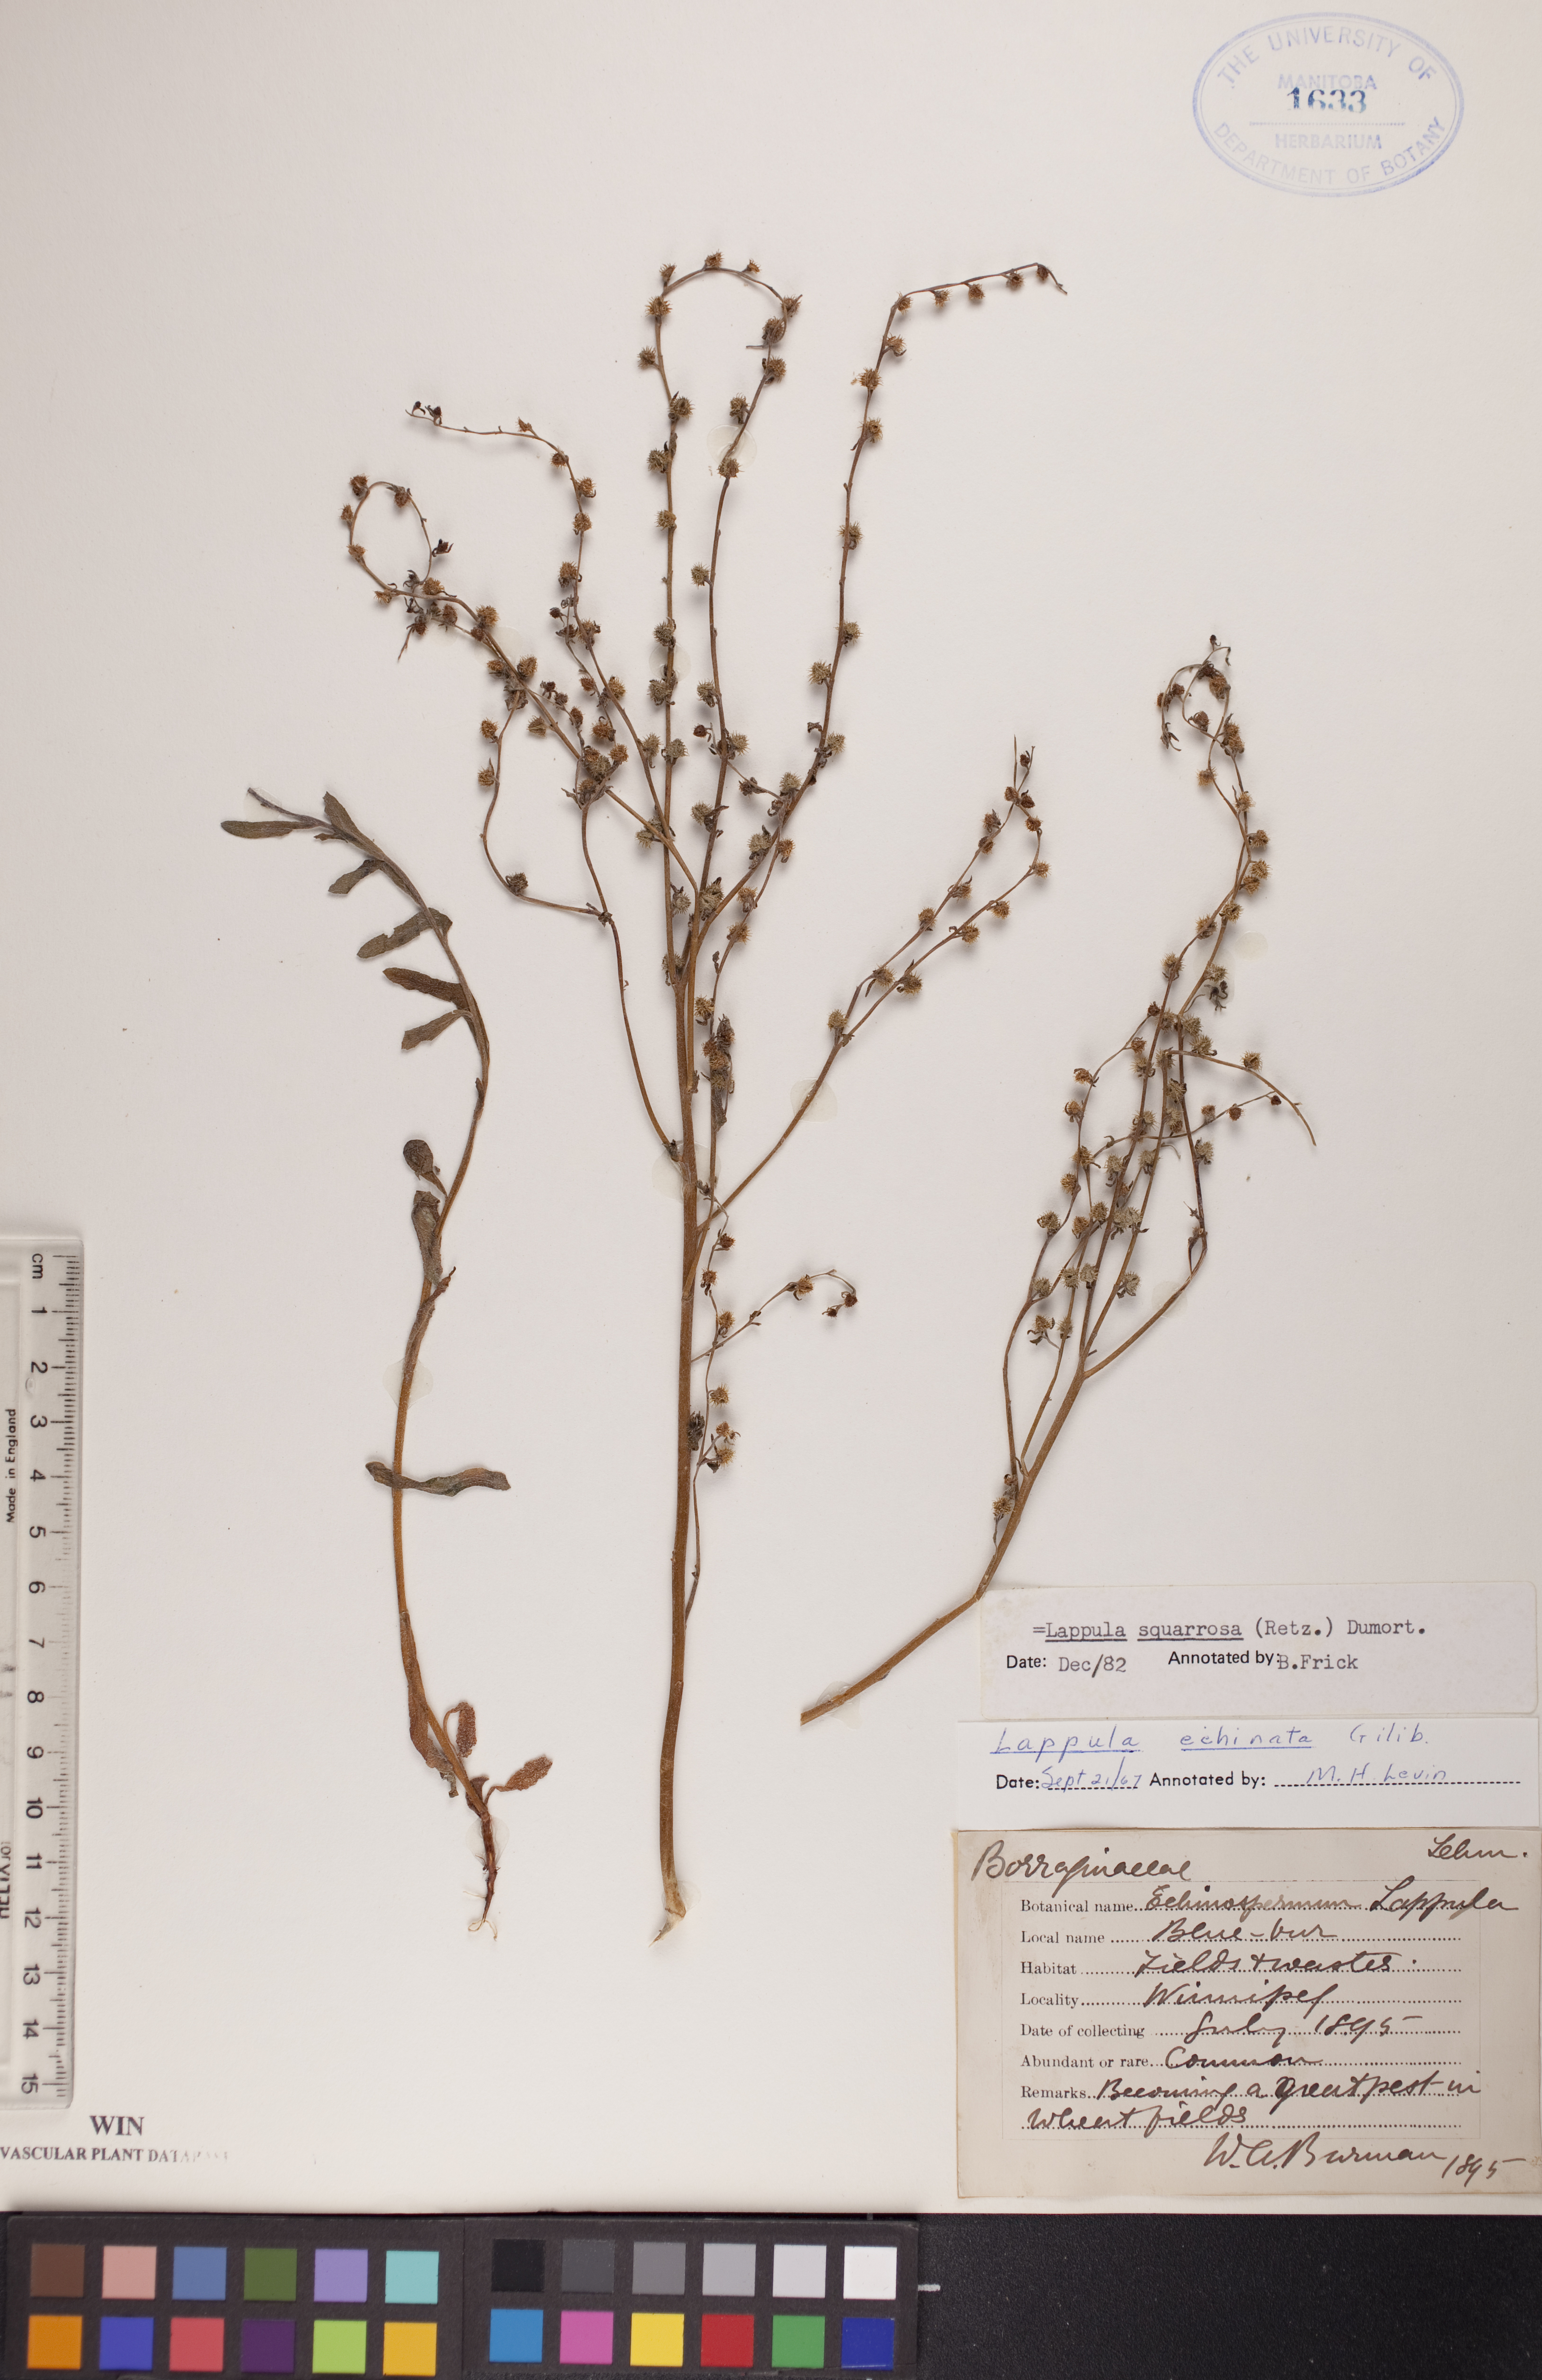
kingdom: Plantae
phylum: Tracheophyta
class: Magnoliopsida
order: Boraginales
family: Boraginaceae
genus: Lappula
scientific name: Lappula squarrosa
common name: European stickseed
